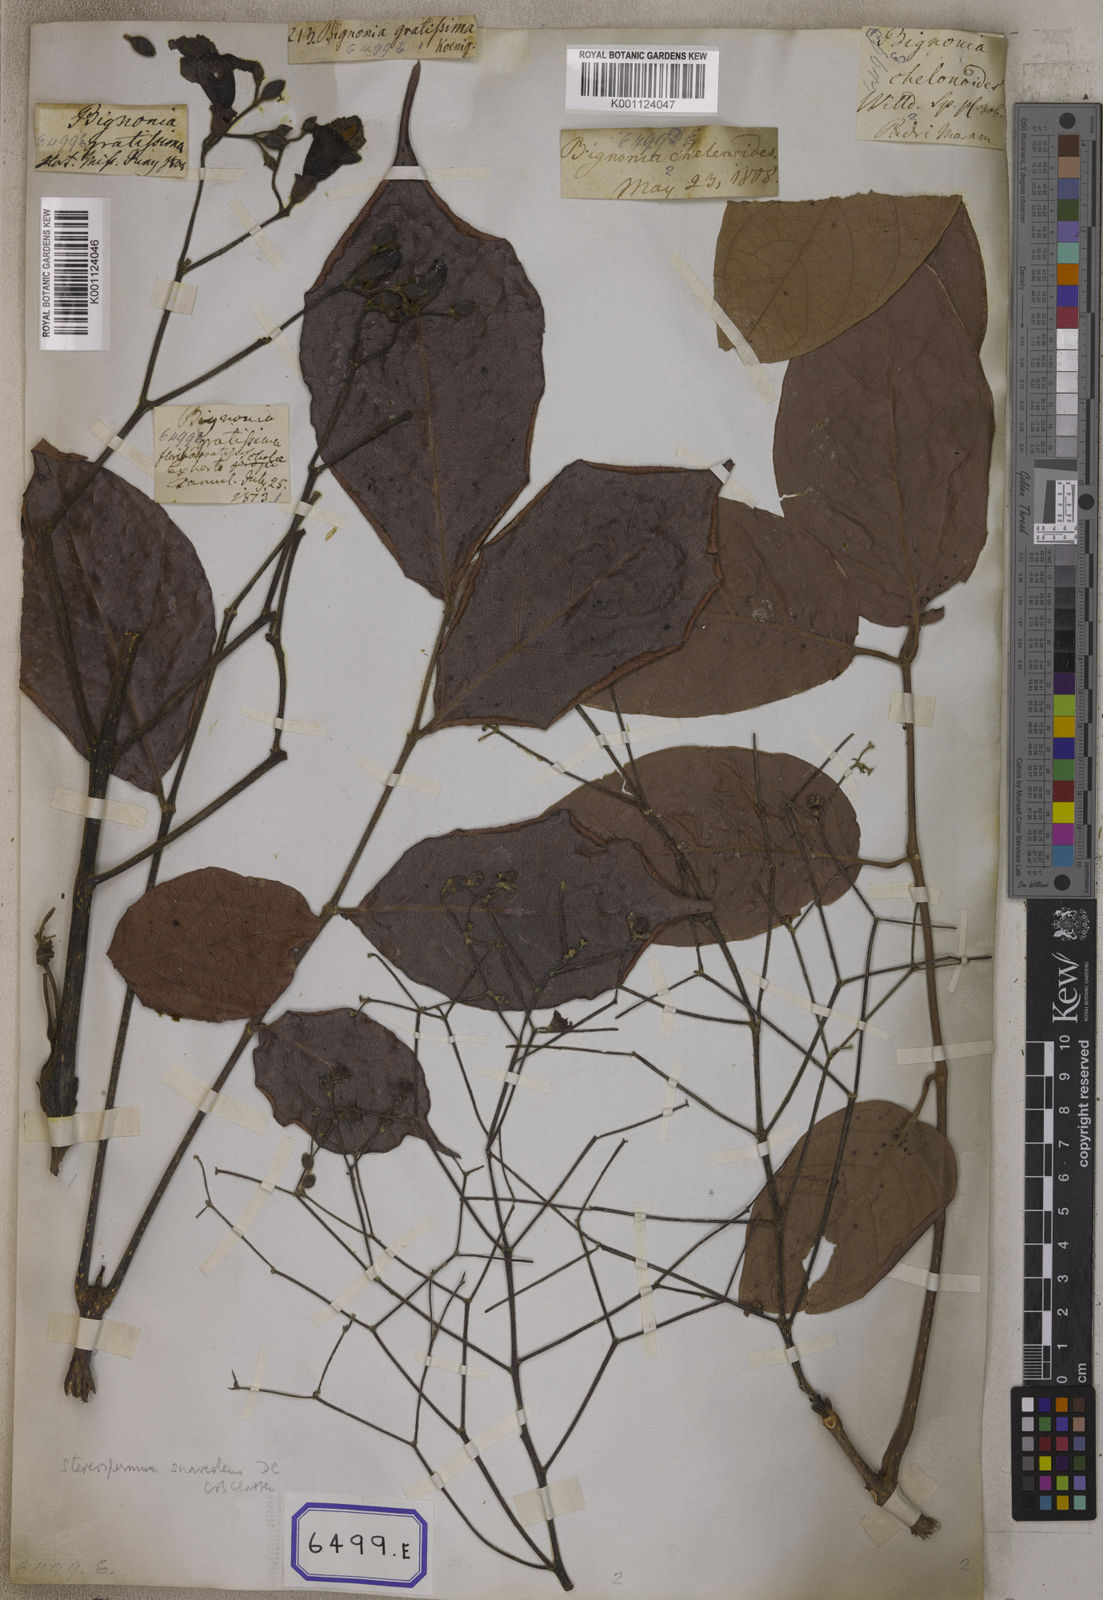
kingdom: Plantae
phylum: Tracheophyta
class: Magnoliopsida
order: Lamiales
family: Bignoniaceae
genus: Stereospermum
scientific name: Stereospermum chelonoides
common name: Fragrant padritree
